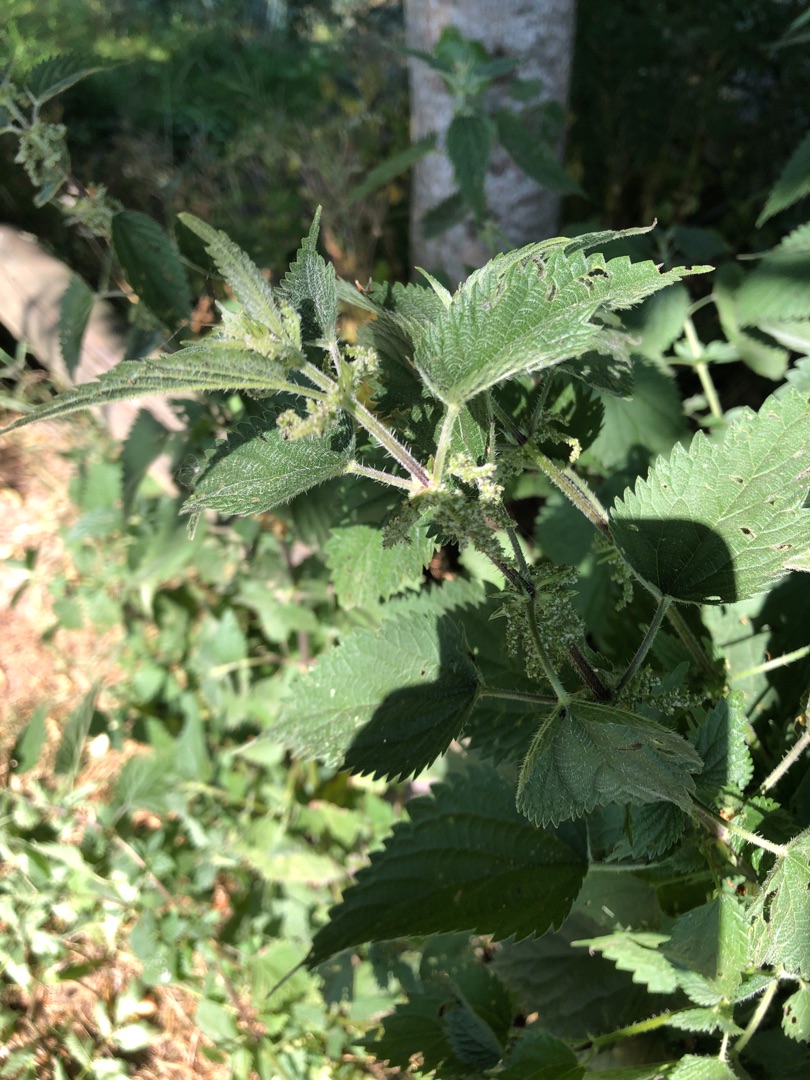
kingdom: Plantae
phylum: Tracheophyta
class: Magnoliopsida
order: Rosales
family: Urticaceae
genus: Urtica
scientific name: Urtica dioica
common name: Stor nælde
